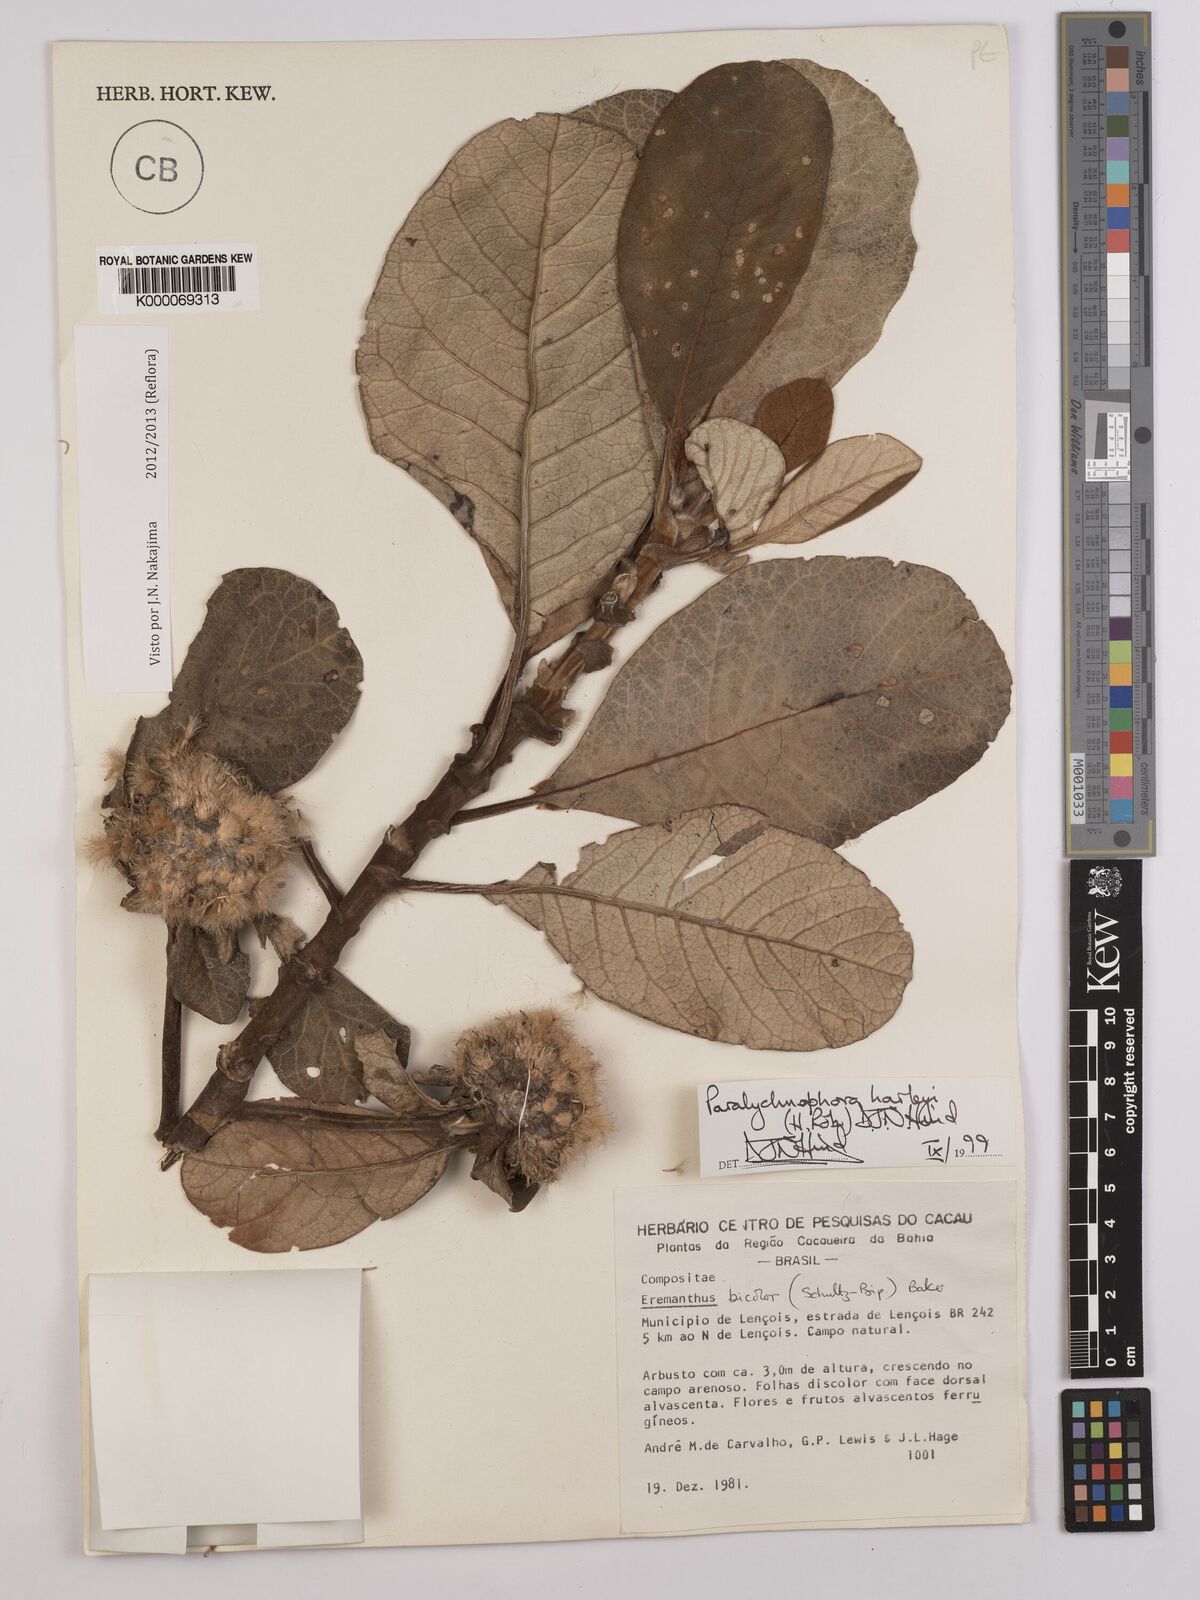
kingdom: Plantae
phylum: Tracheophyta
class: Magnoliopsida
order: Asterales
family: Asteraceae
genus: Paralychnophora
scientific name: Paralychnophora harleyi
